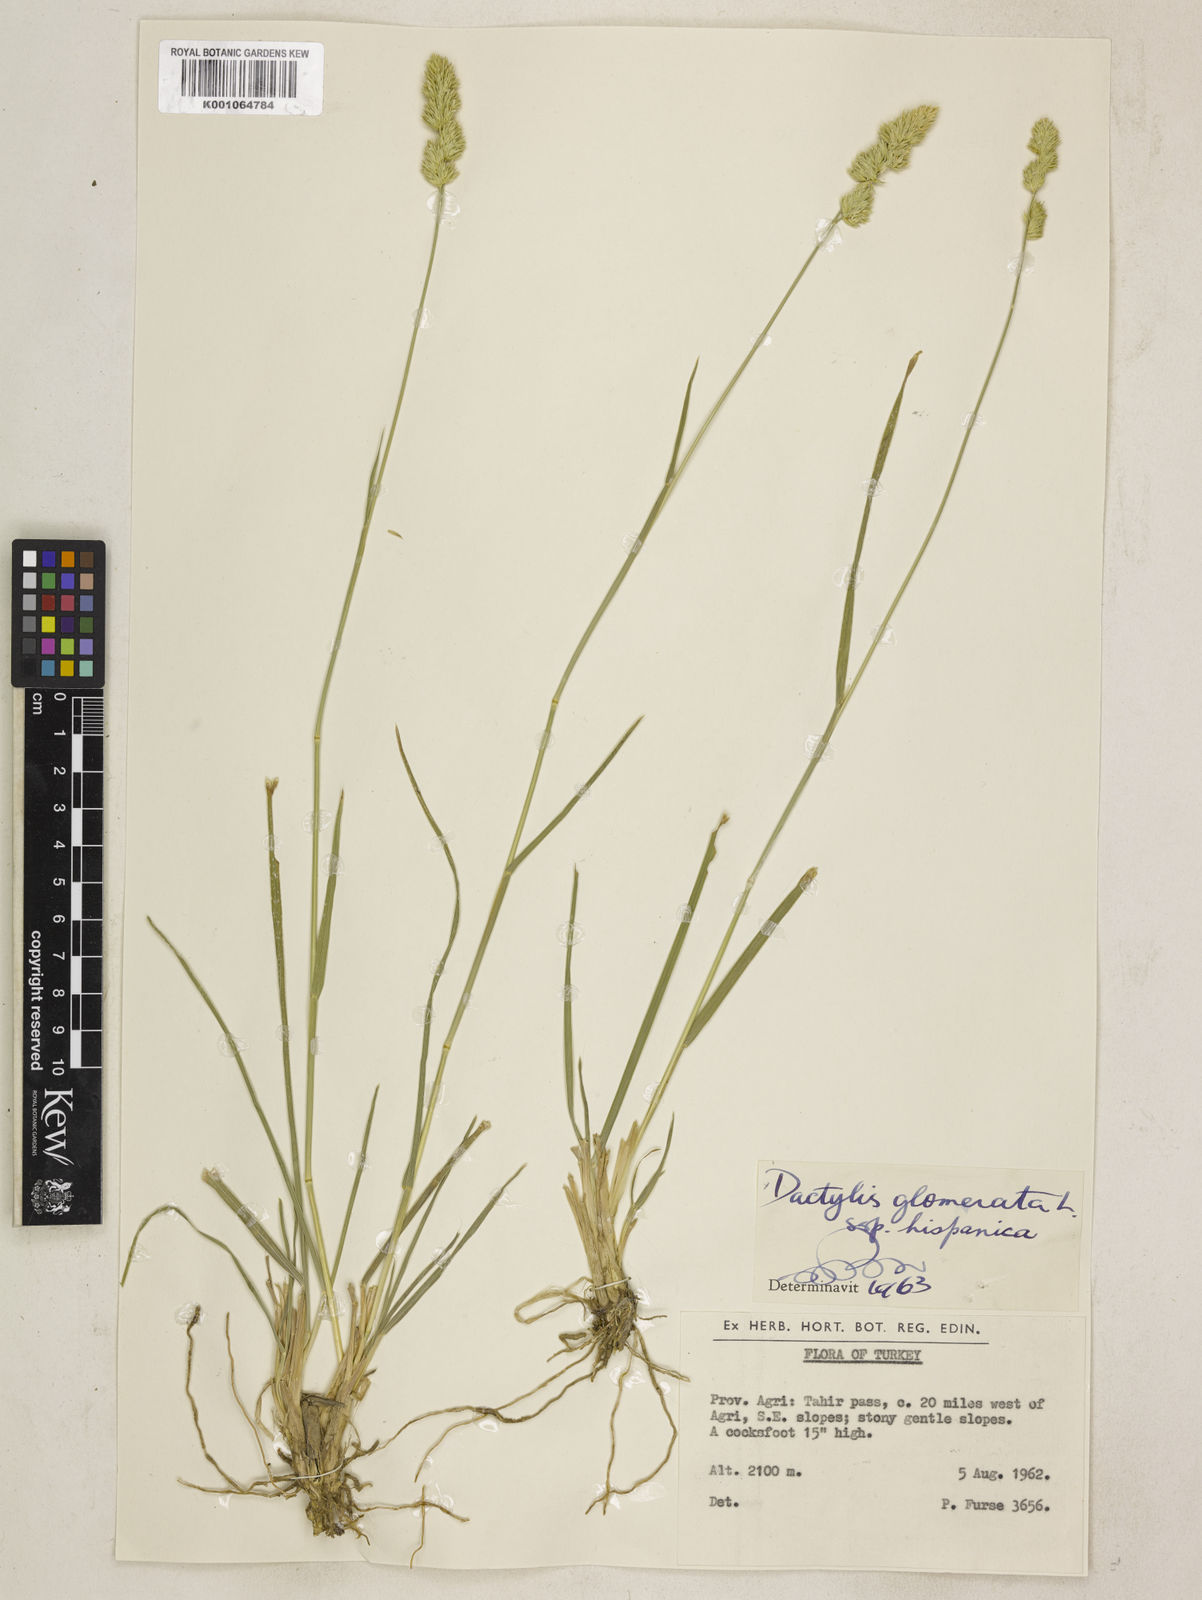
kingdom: Plantae
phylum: Tracheophyta
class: Liliopsida
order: Poales
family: Poaceae
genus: Dactylis
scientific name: Dactylis glomerata
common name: Orchardgrass
